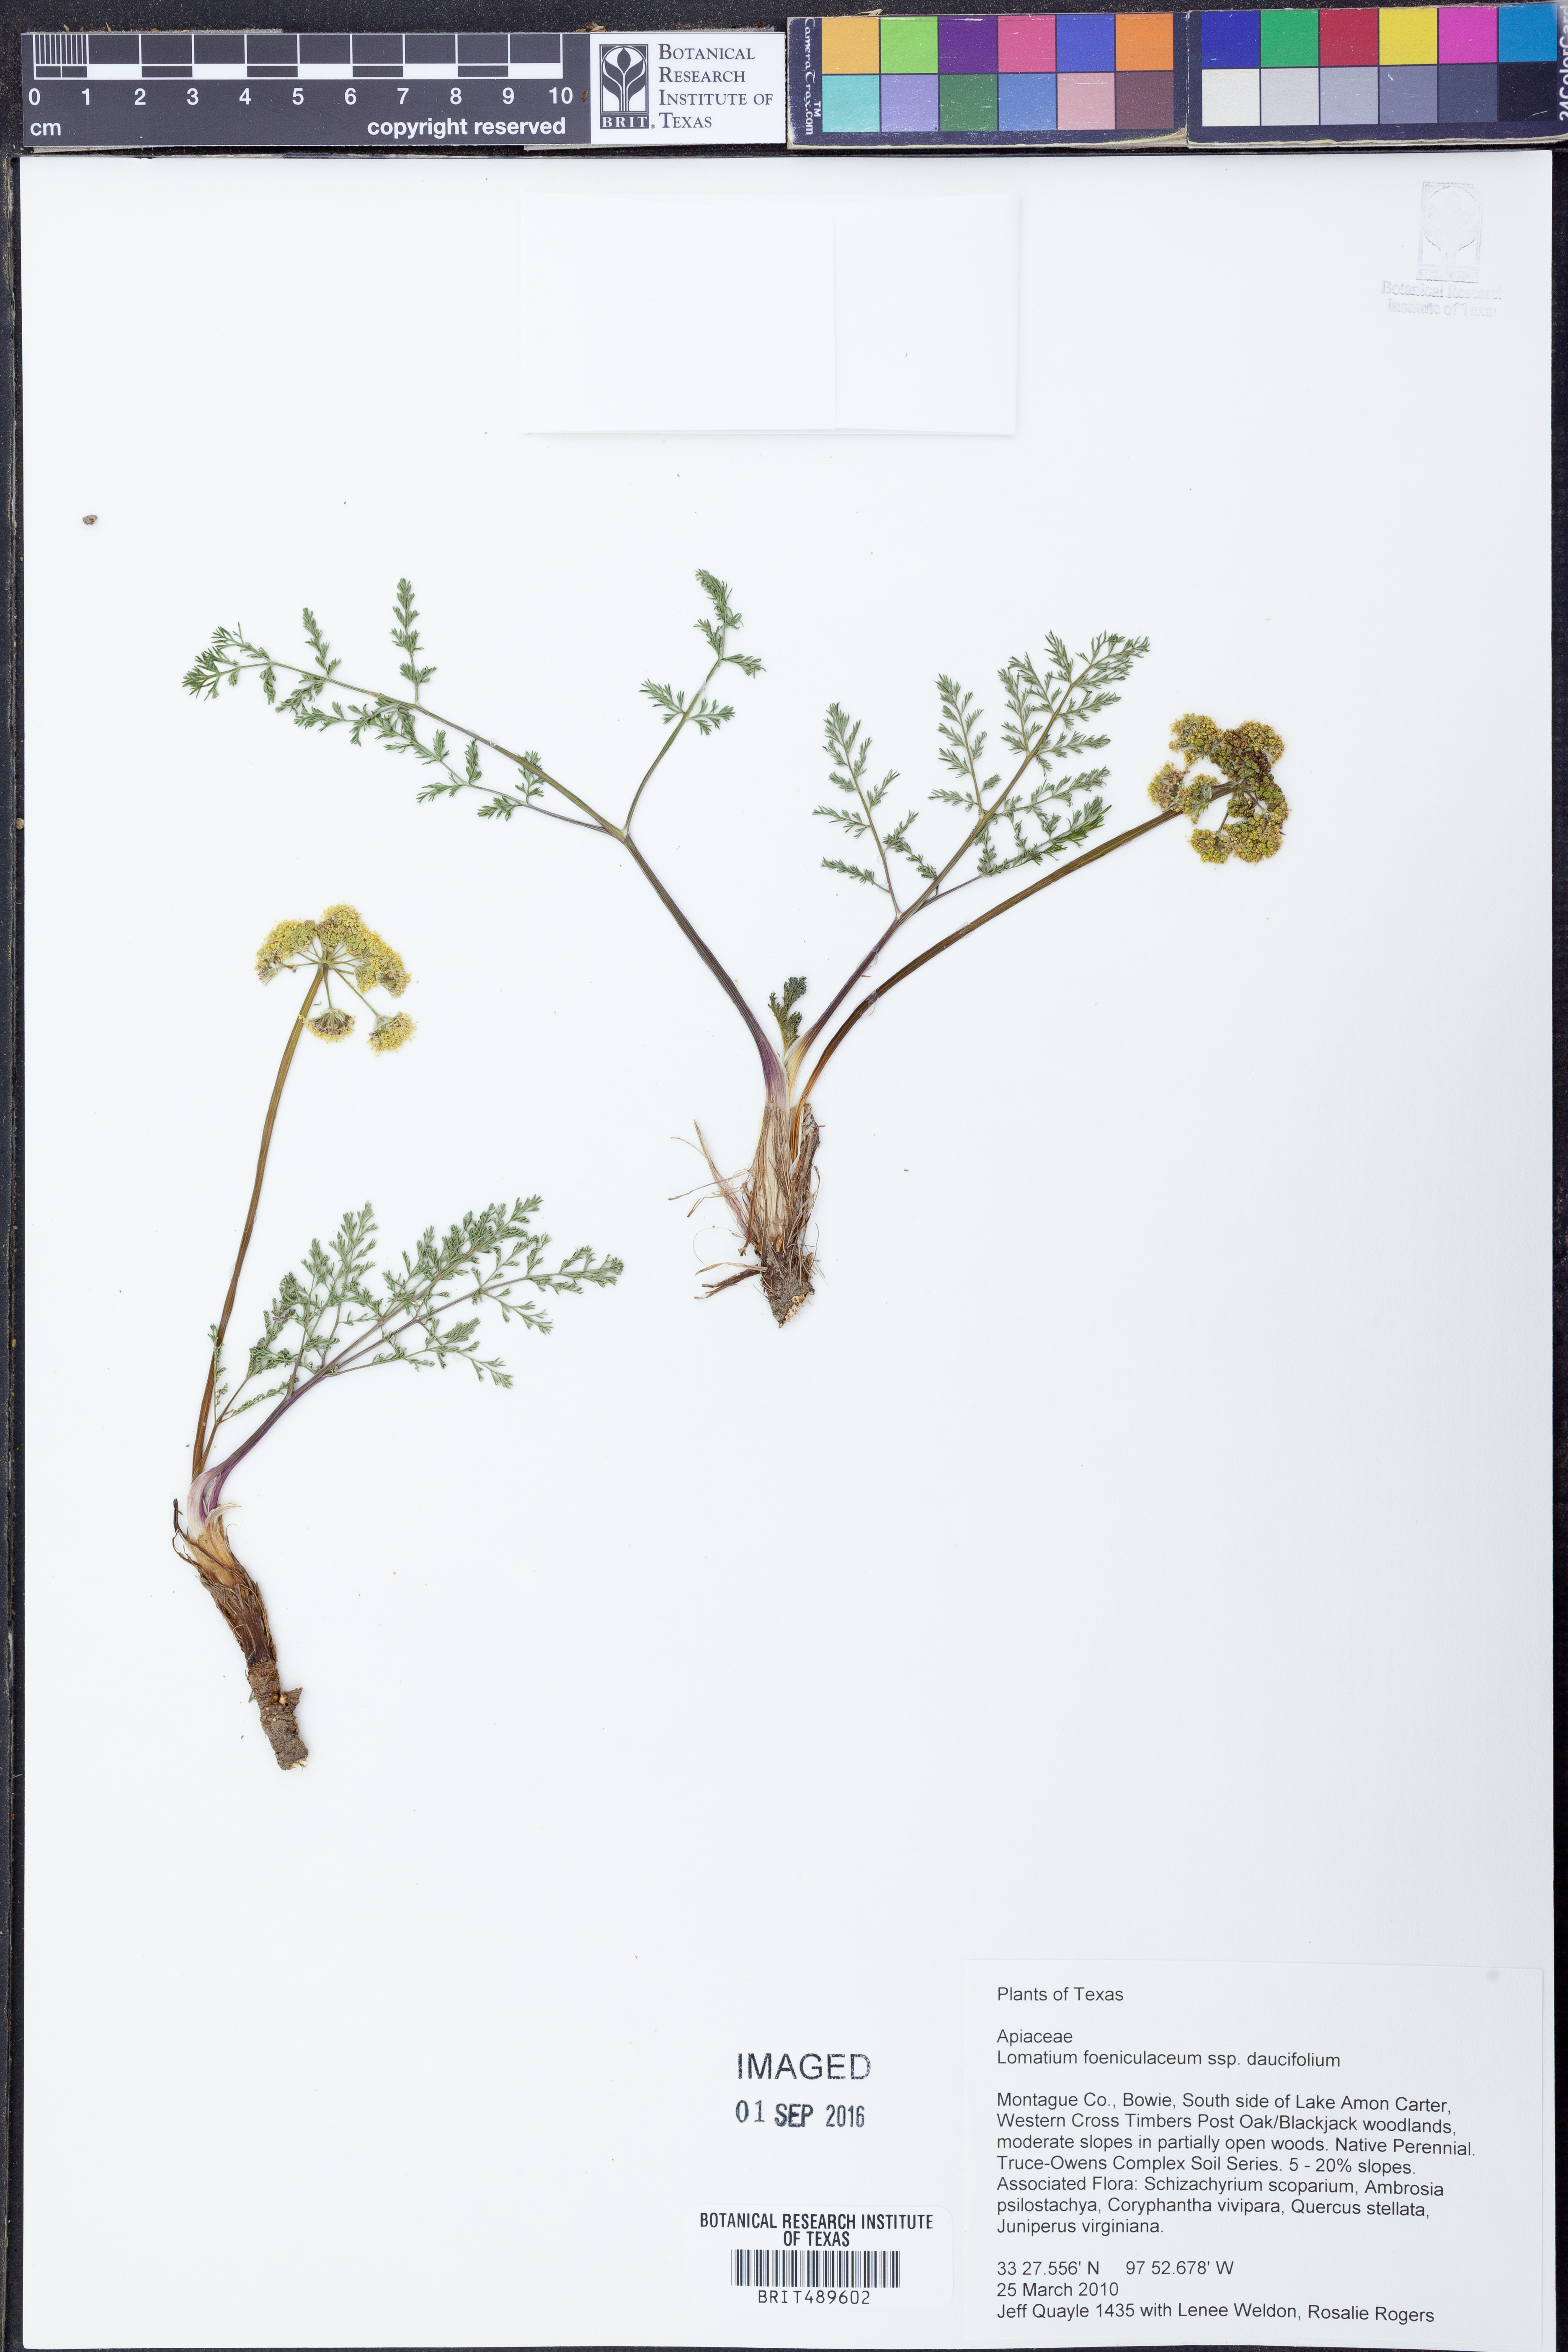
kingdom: Plantae
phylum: Tracheophyta
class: Magnoliopsida
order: Apiales
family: Apiaceae
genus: Lomatium
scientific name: Lomatium foeniculaceum
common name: Desert-parsley
